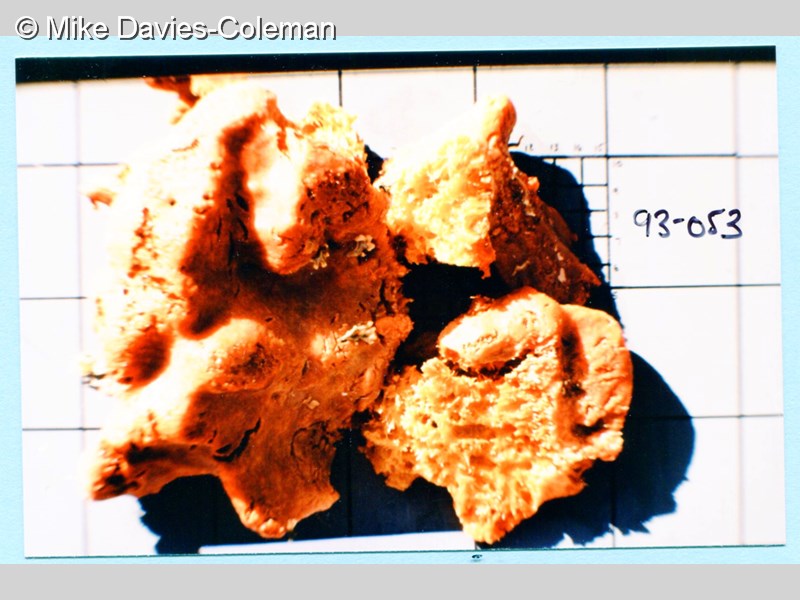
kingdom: Animalia
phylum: Porifera
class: Demospongiae
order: Poecilosclerida
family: Mycalidae
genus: Mycale
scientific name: Mycale
